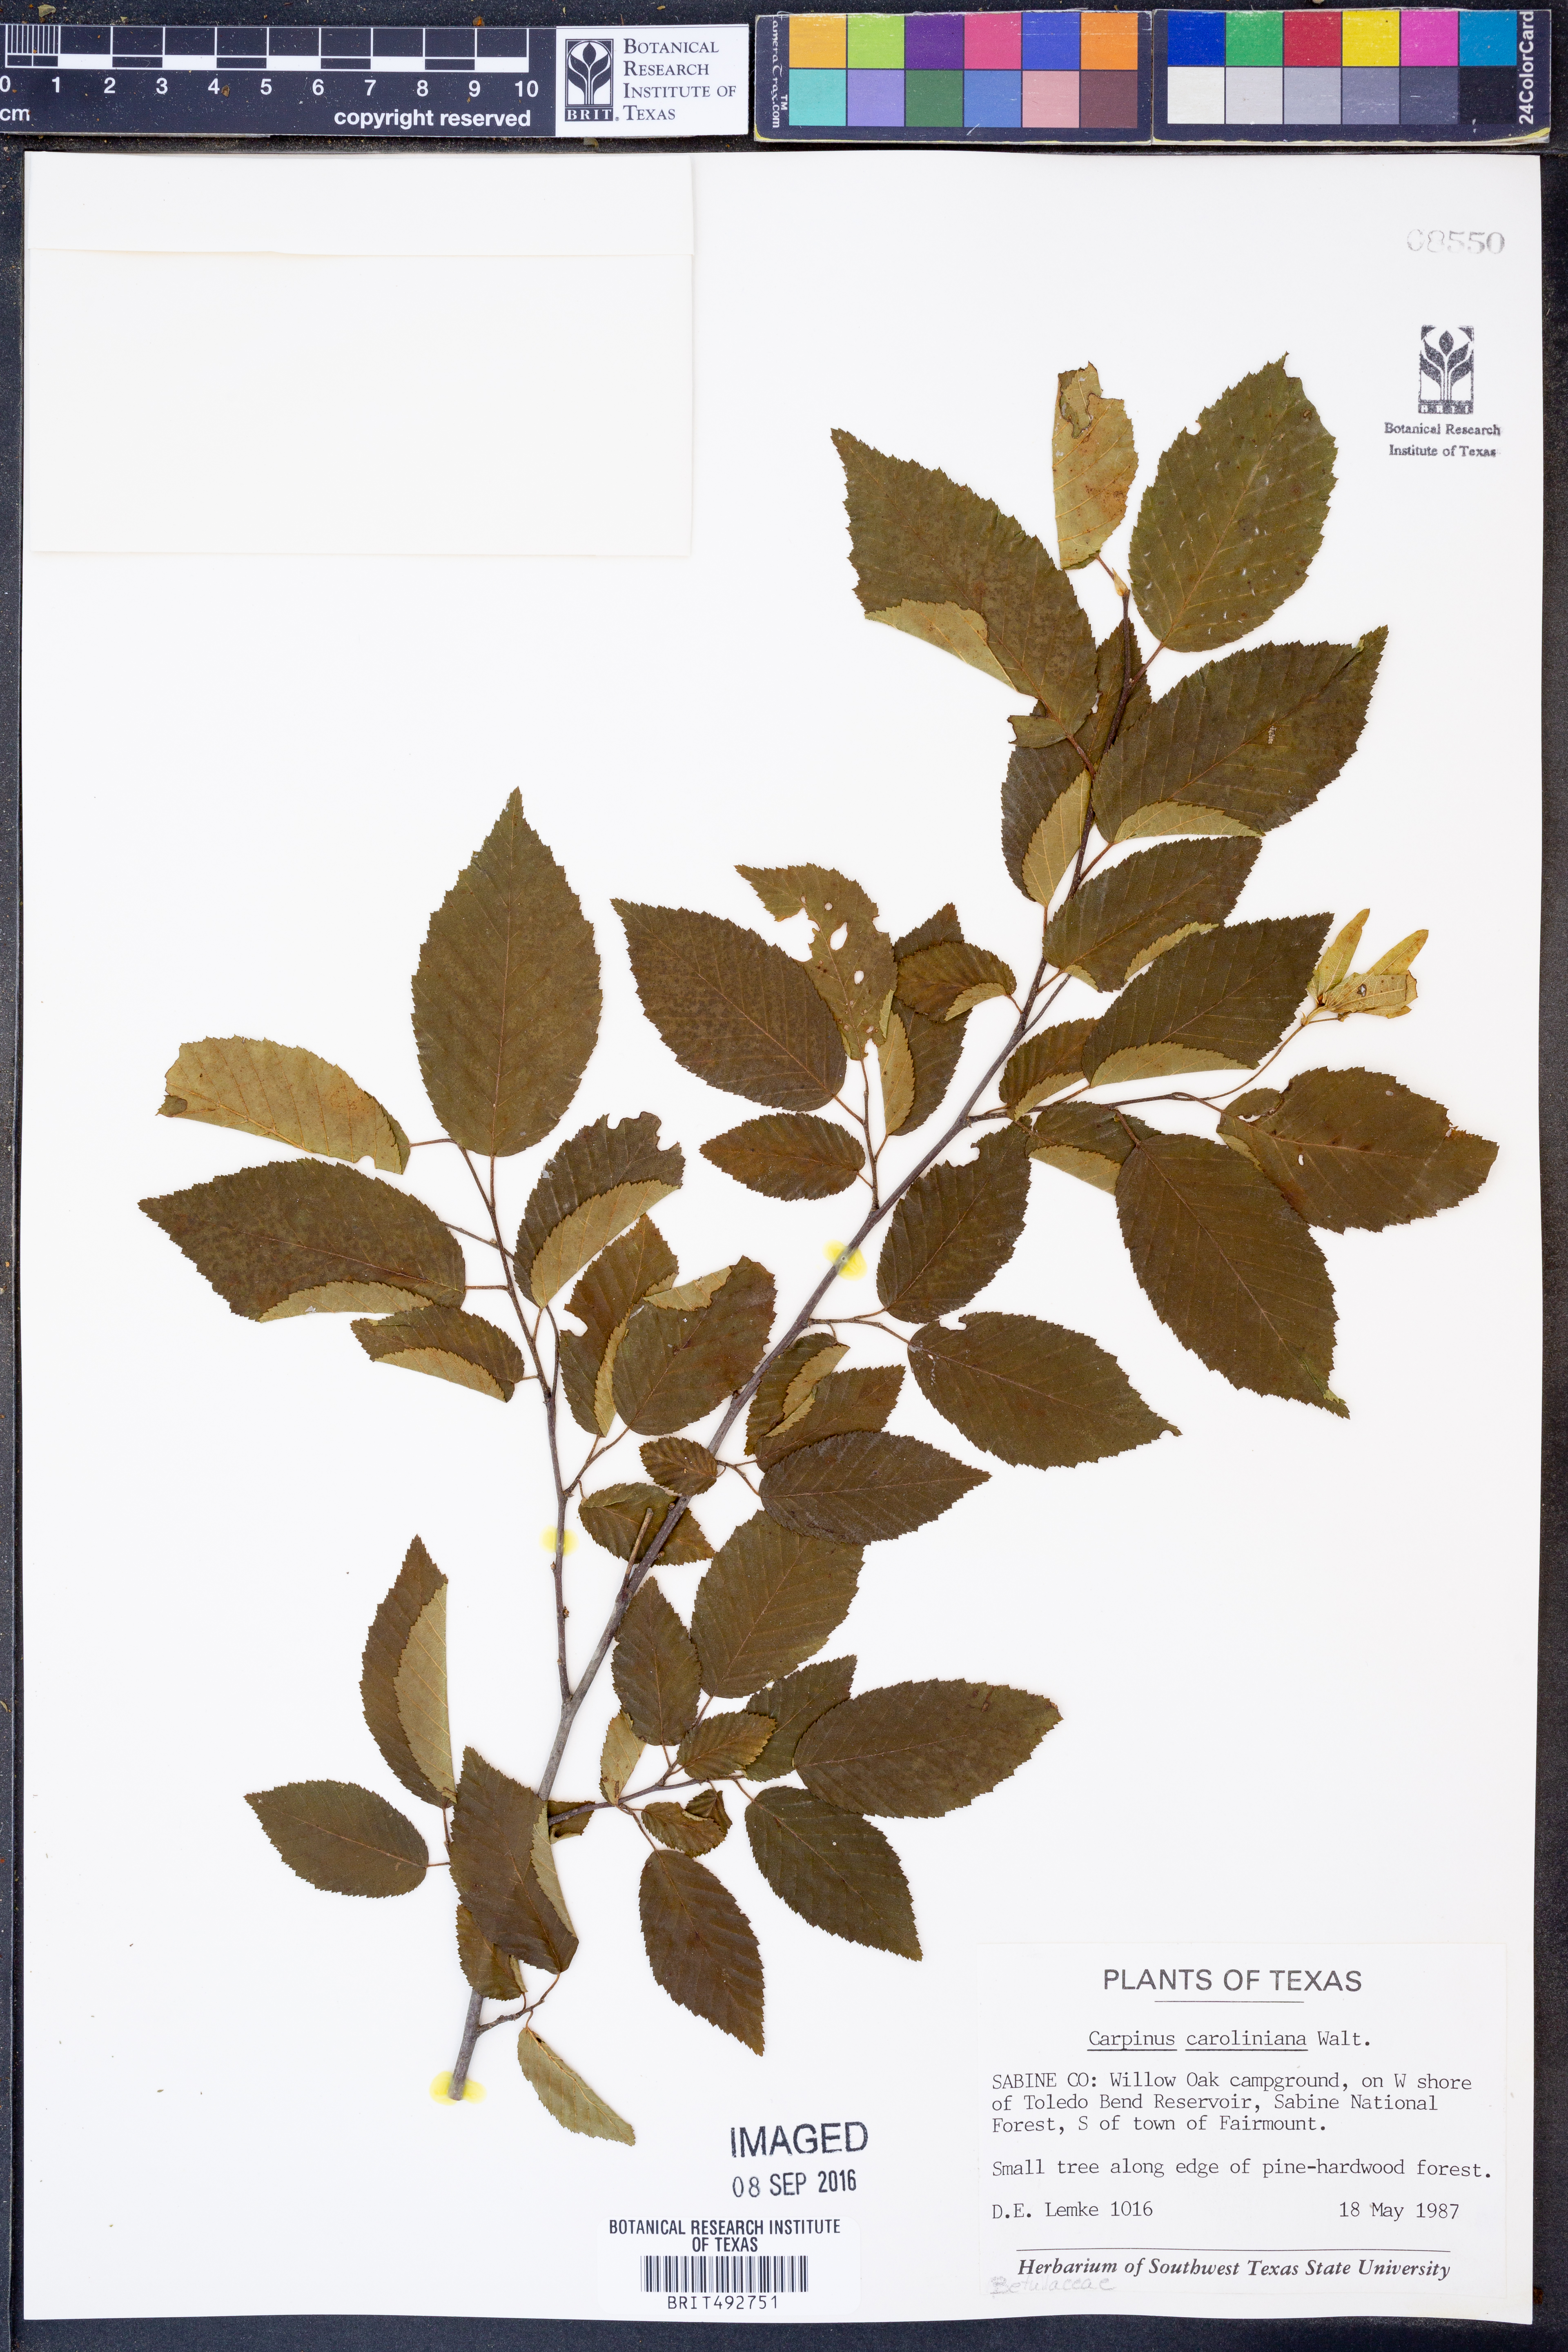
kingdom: Plantae
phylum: Tracheophyta
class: Magnoliopsida
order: Fagales
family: Betulaceae
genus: Carpinus
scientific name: Carpinus caroliniana
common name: American hornbeam
